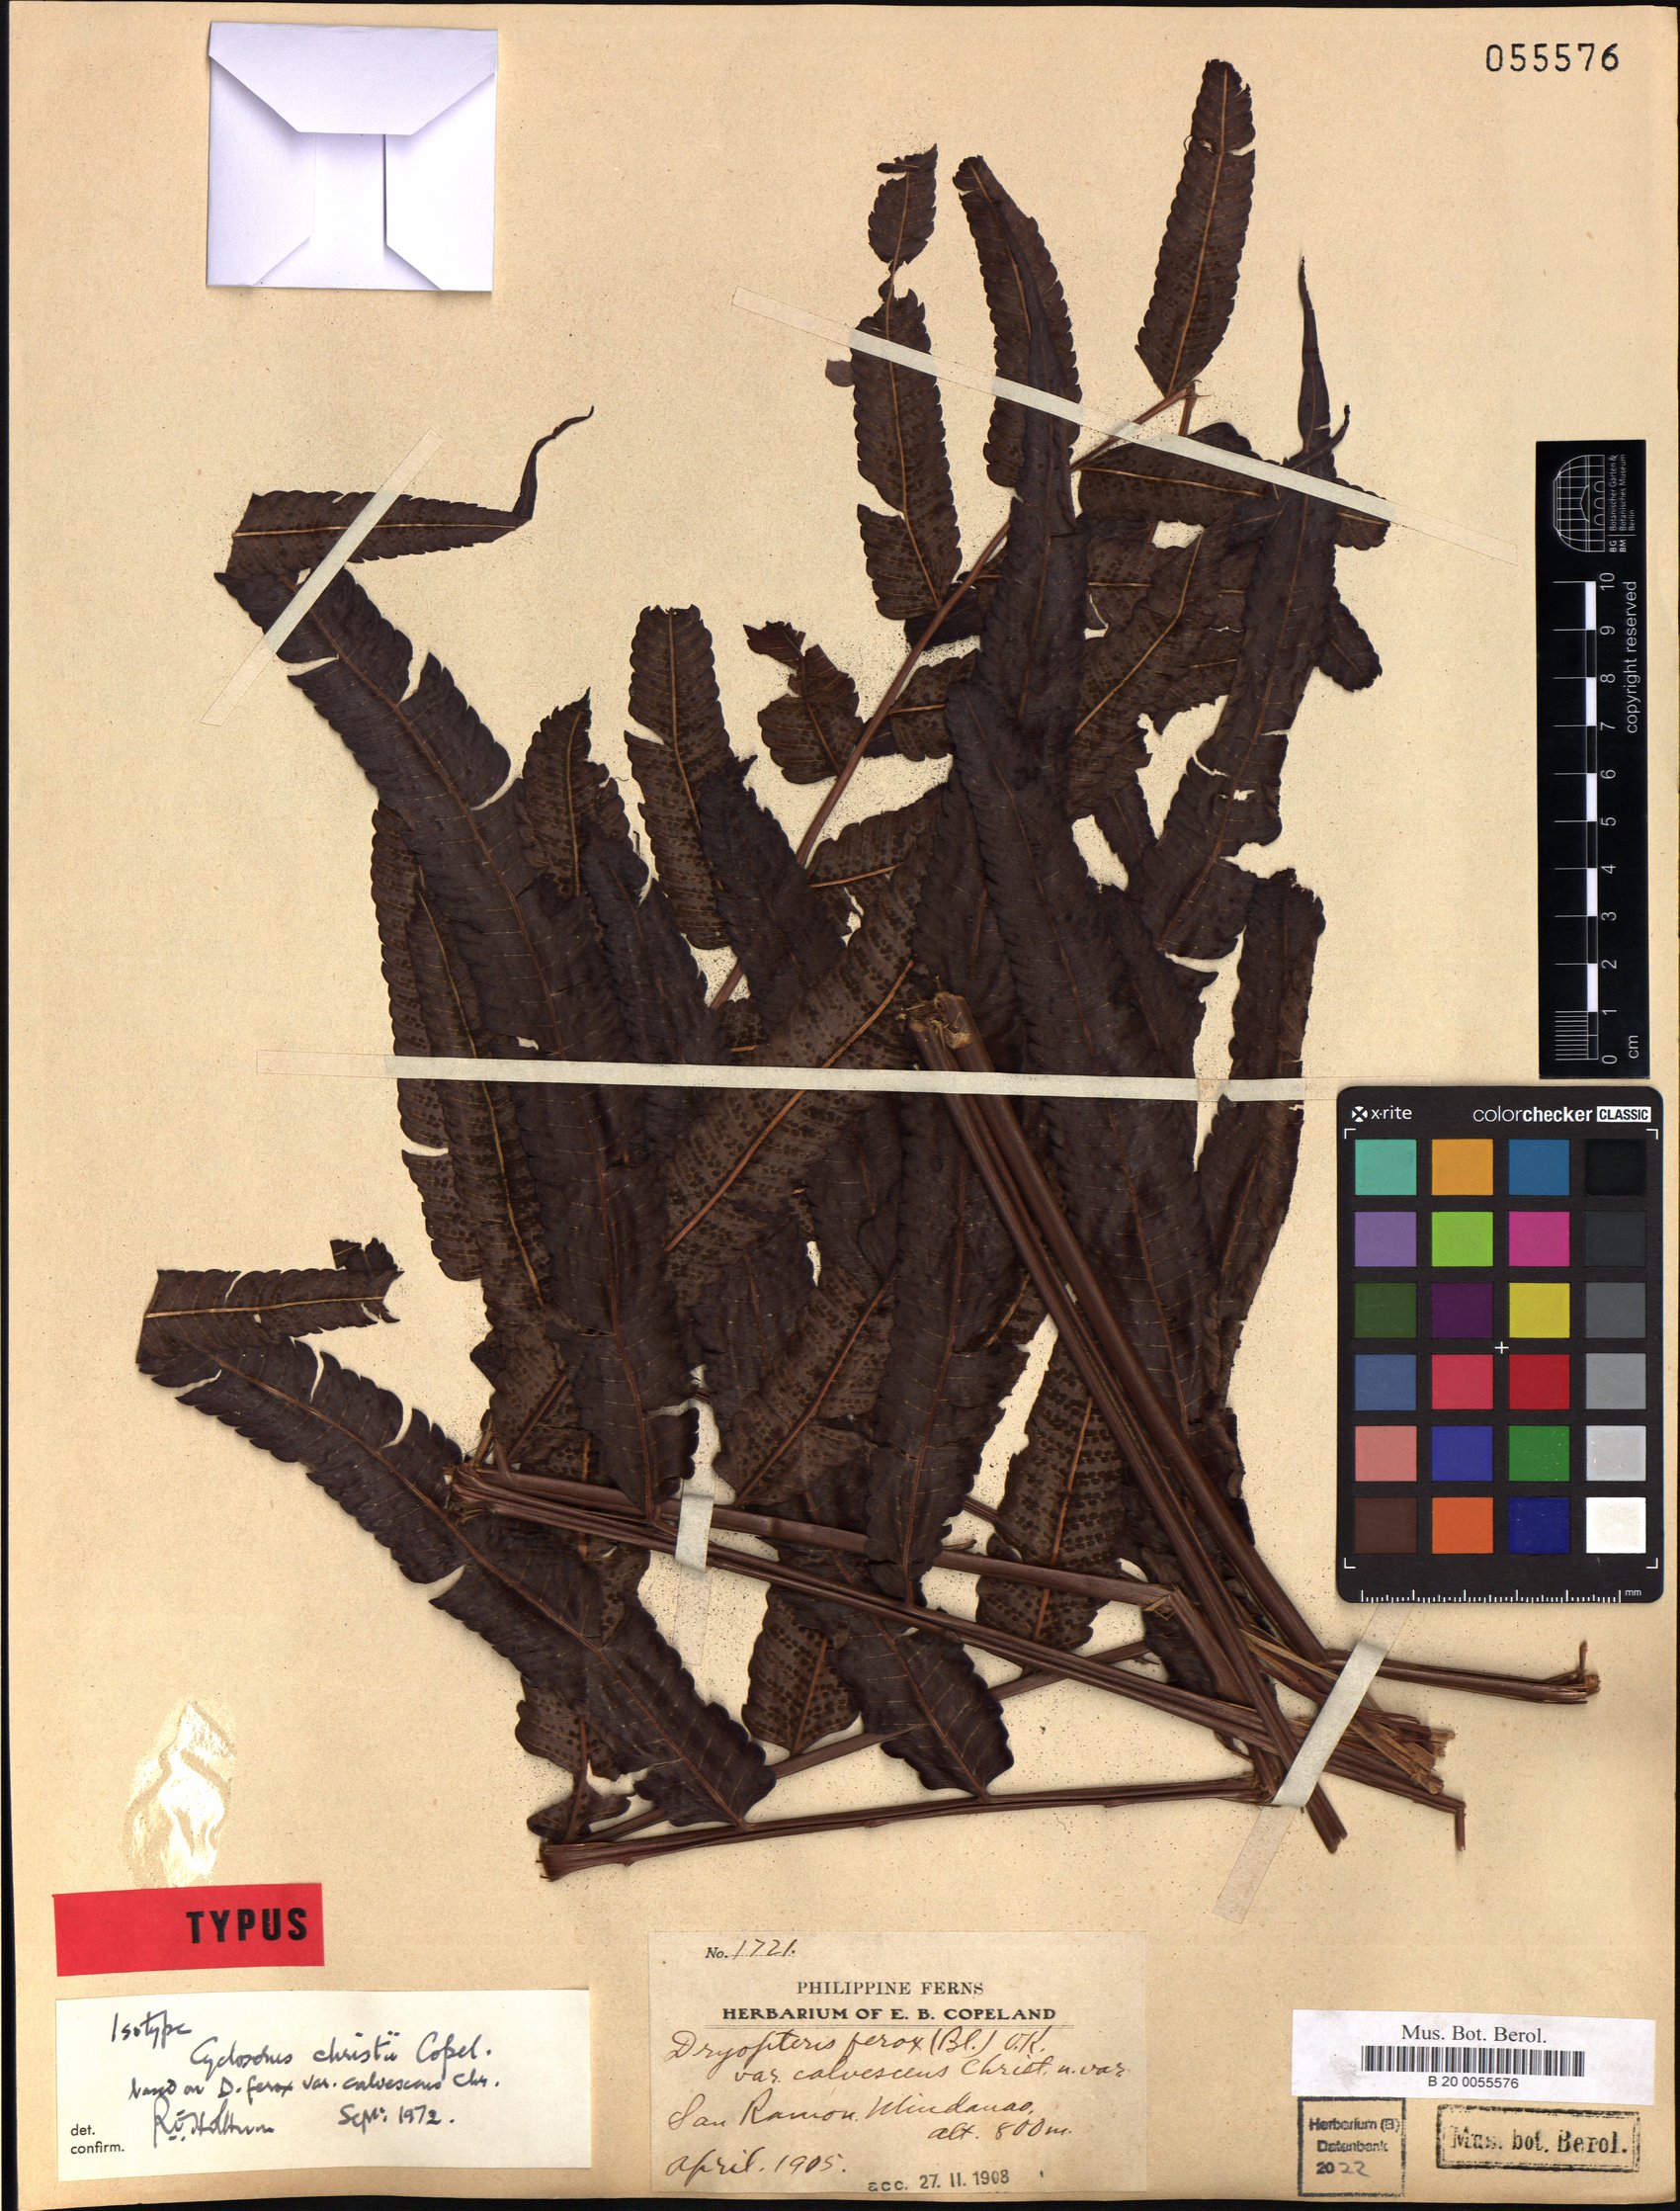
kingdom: Plantae
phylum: Tracheophyta
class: Polypodiopsida
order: Polypodiales
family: Thelypteridaceae
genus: Chingia
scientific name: Chingia christii
